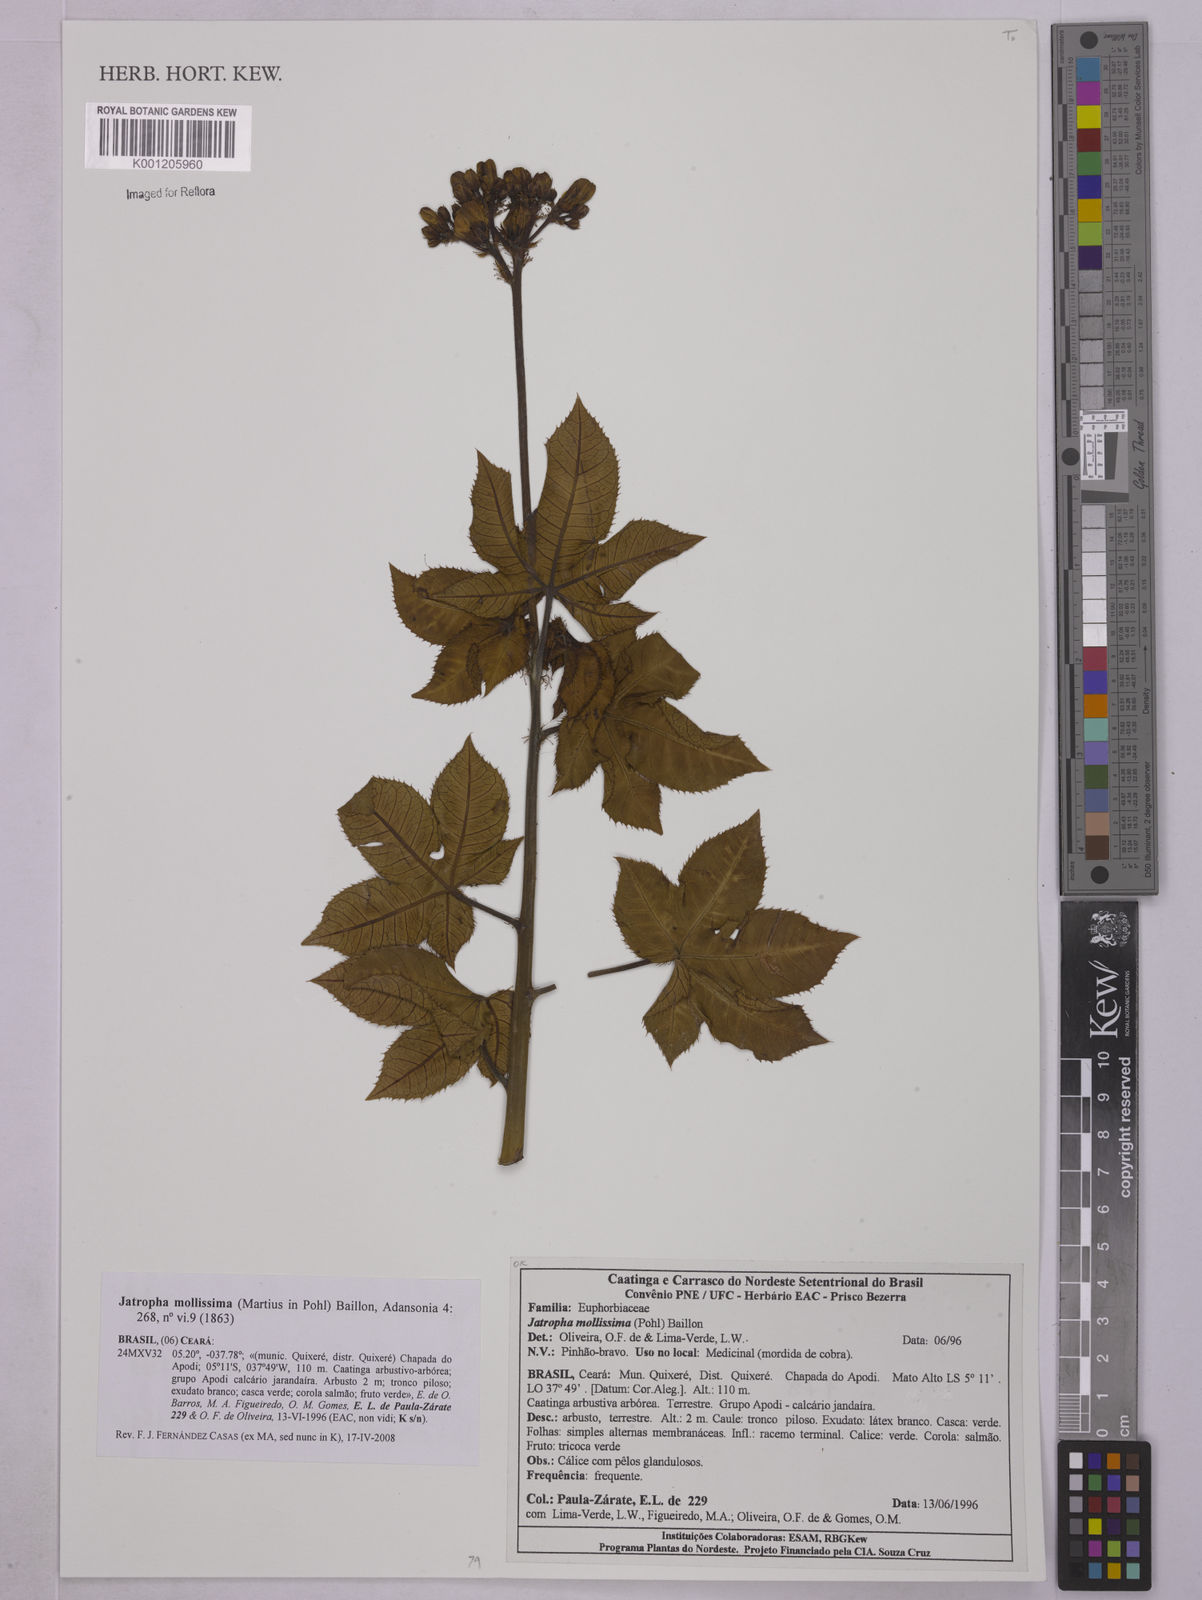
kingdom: Plantae
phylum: Tracheophyta
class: Magnoliopsida
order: Malpighiales
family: Euphorbiaceae
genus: Jatropha
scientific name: Jatropha mollissima
